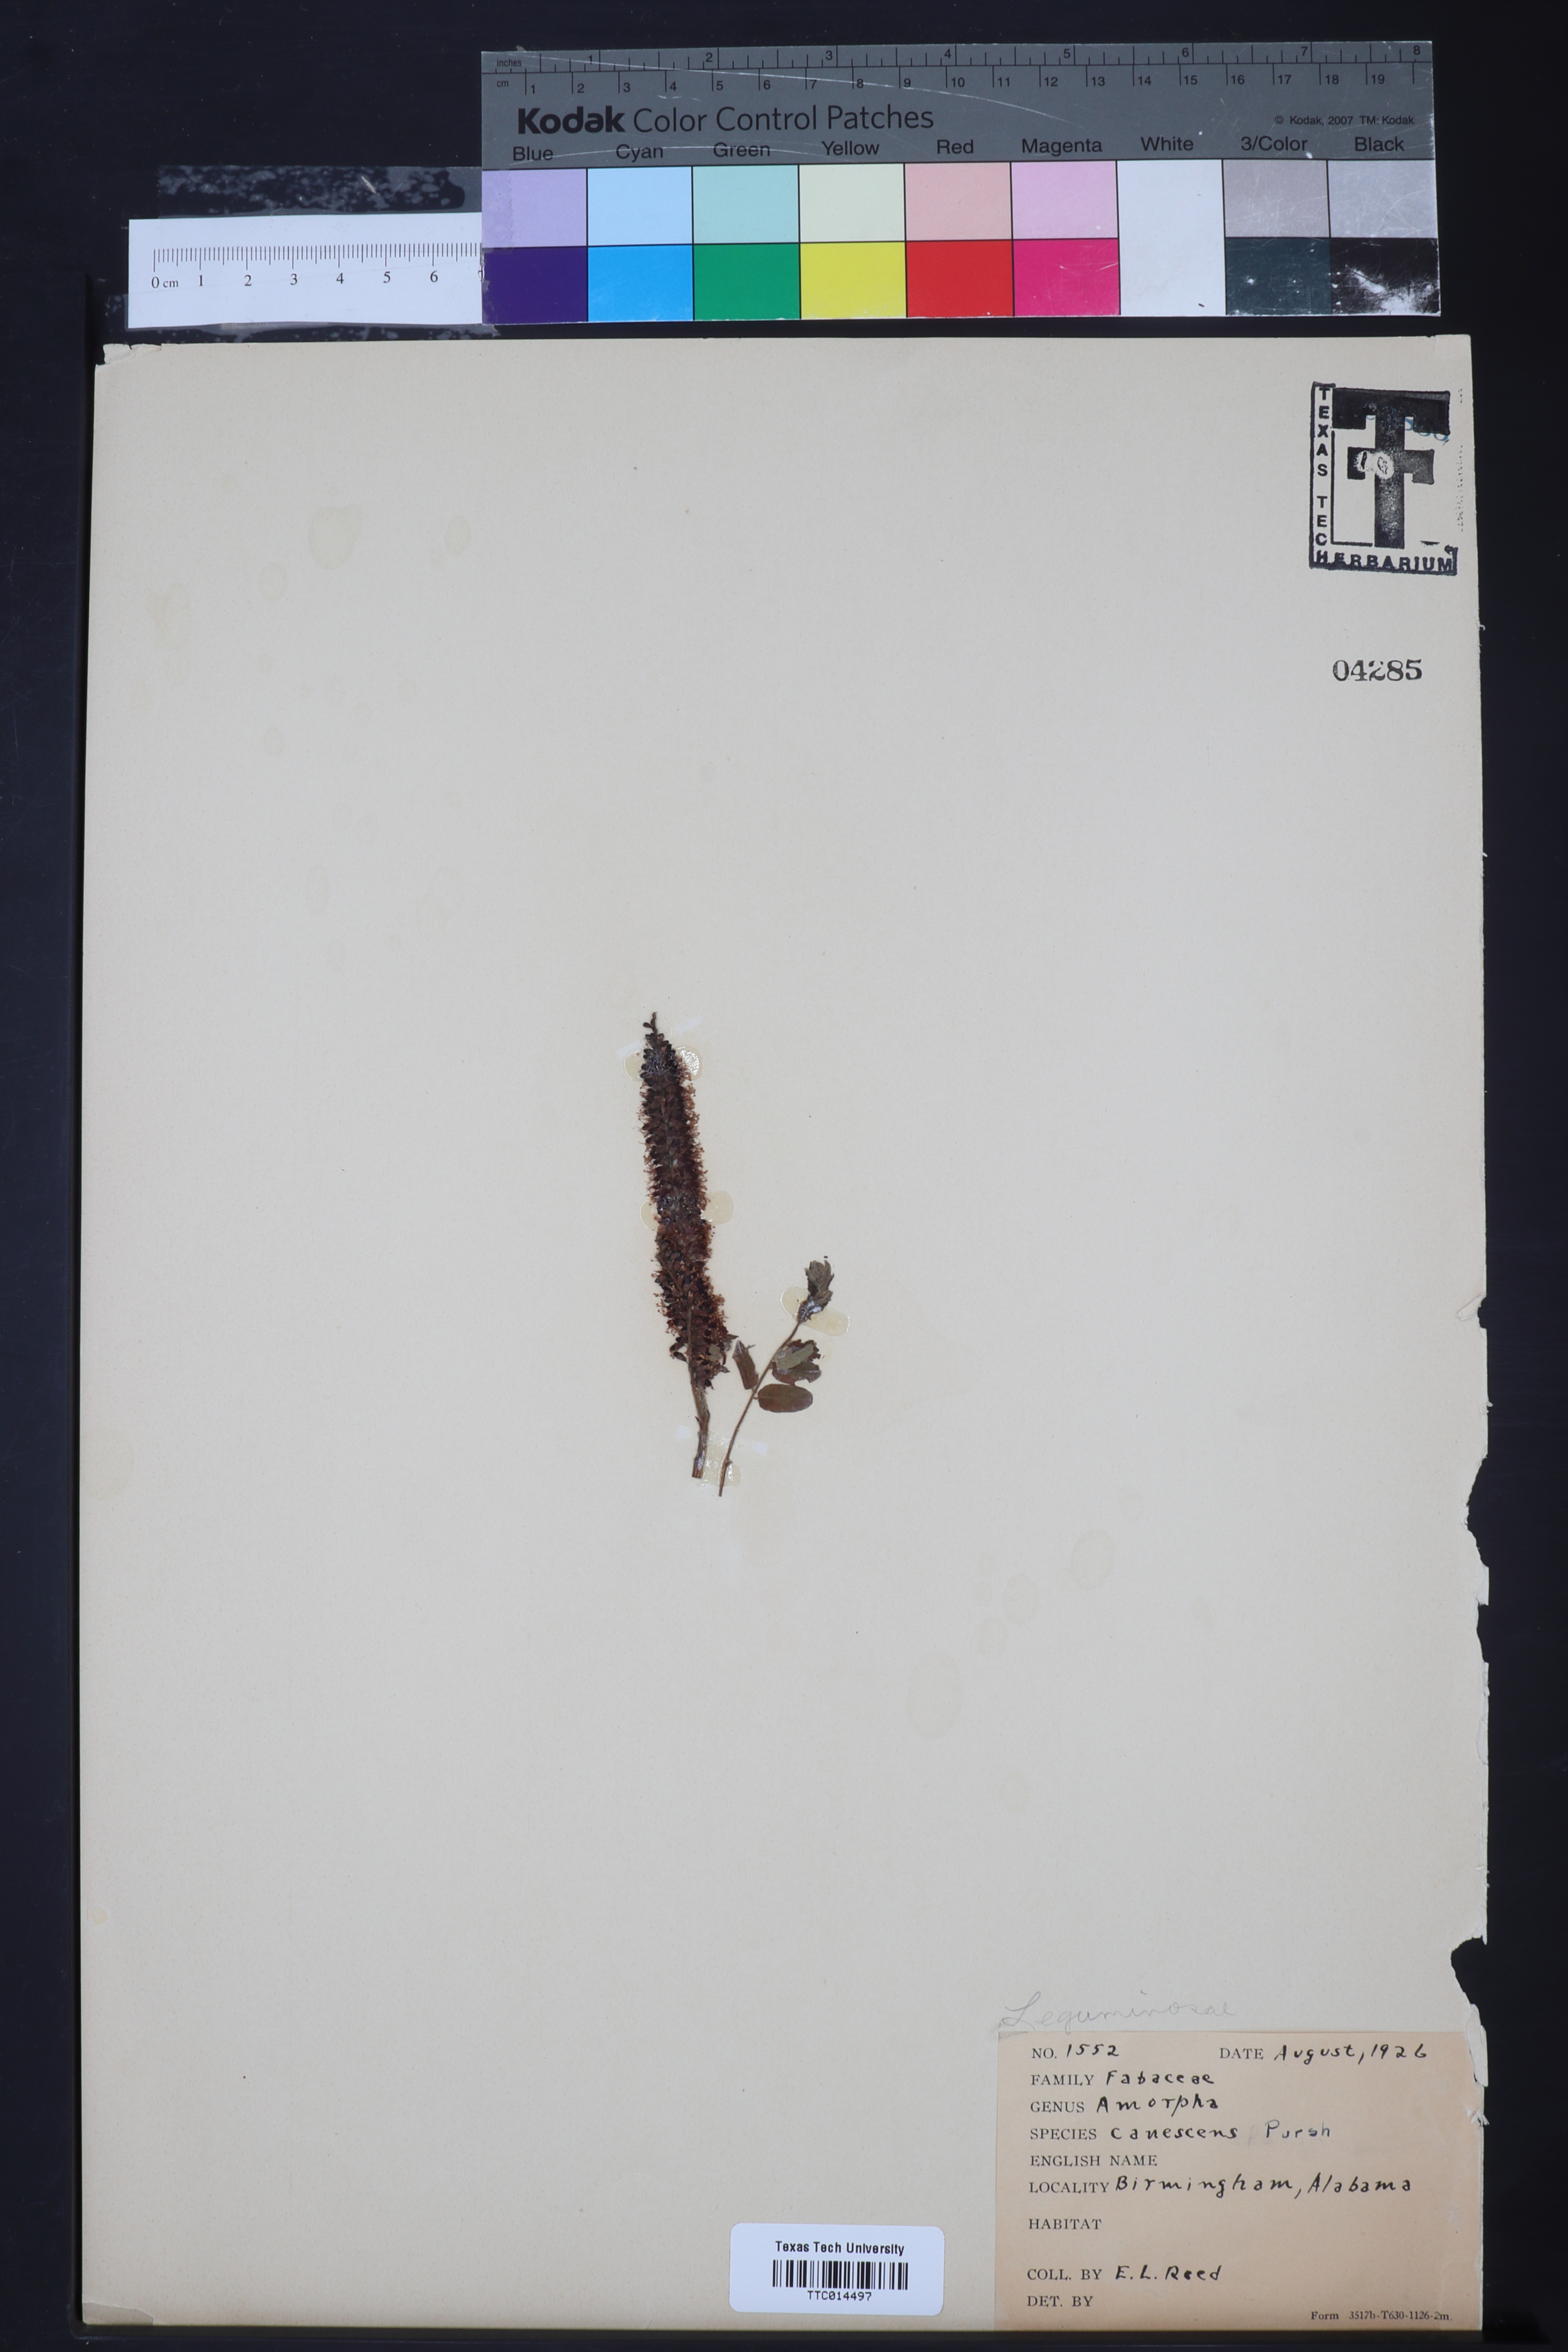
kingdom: Plantae
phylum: Tracheophyta
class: Magnoliopsida
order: Fabales
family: Fabaceae
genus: Amorpha
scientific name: Amorpha canescens
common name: Leadplant
